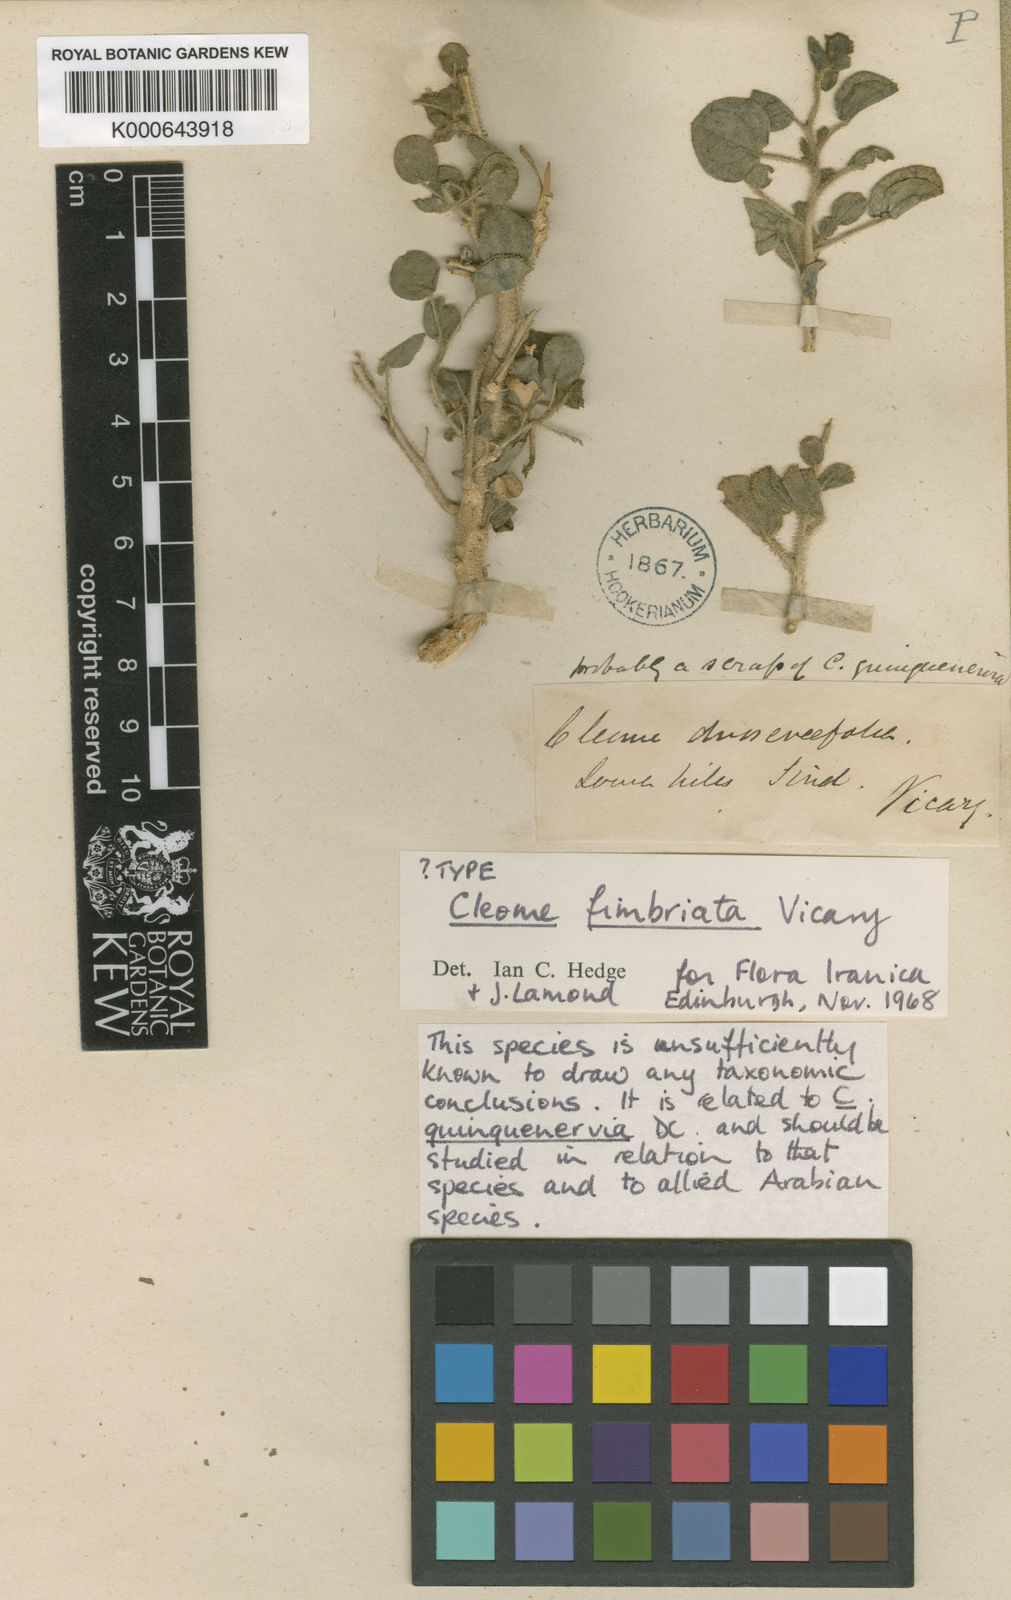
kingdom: Plantae
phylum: Tracheophyta
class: Magnoliopsida
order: Brassicales
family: Cleomaceae
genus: Rorida
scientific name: Rorida quinquenervia
